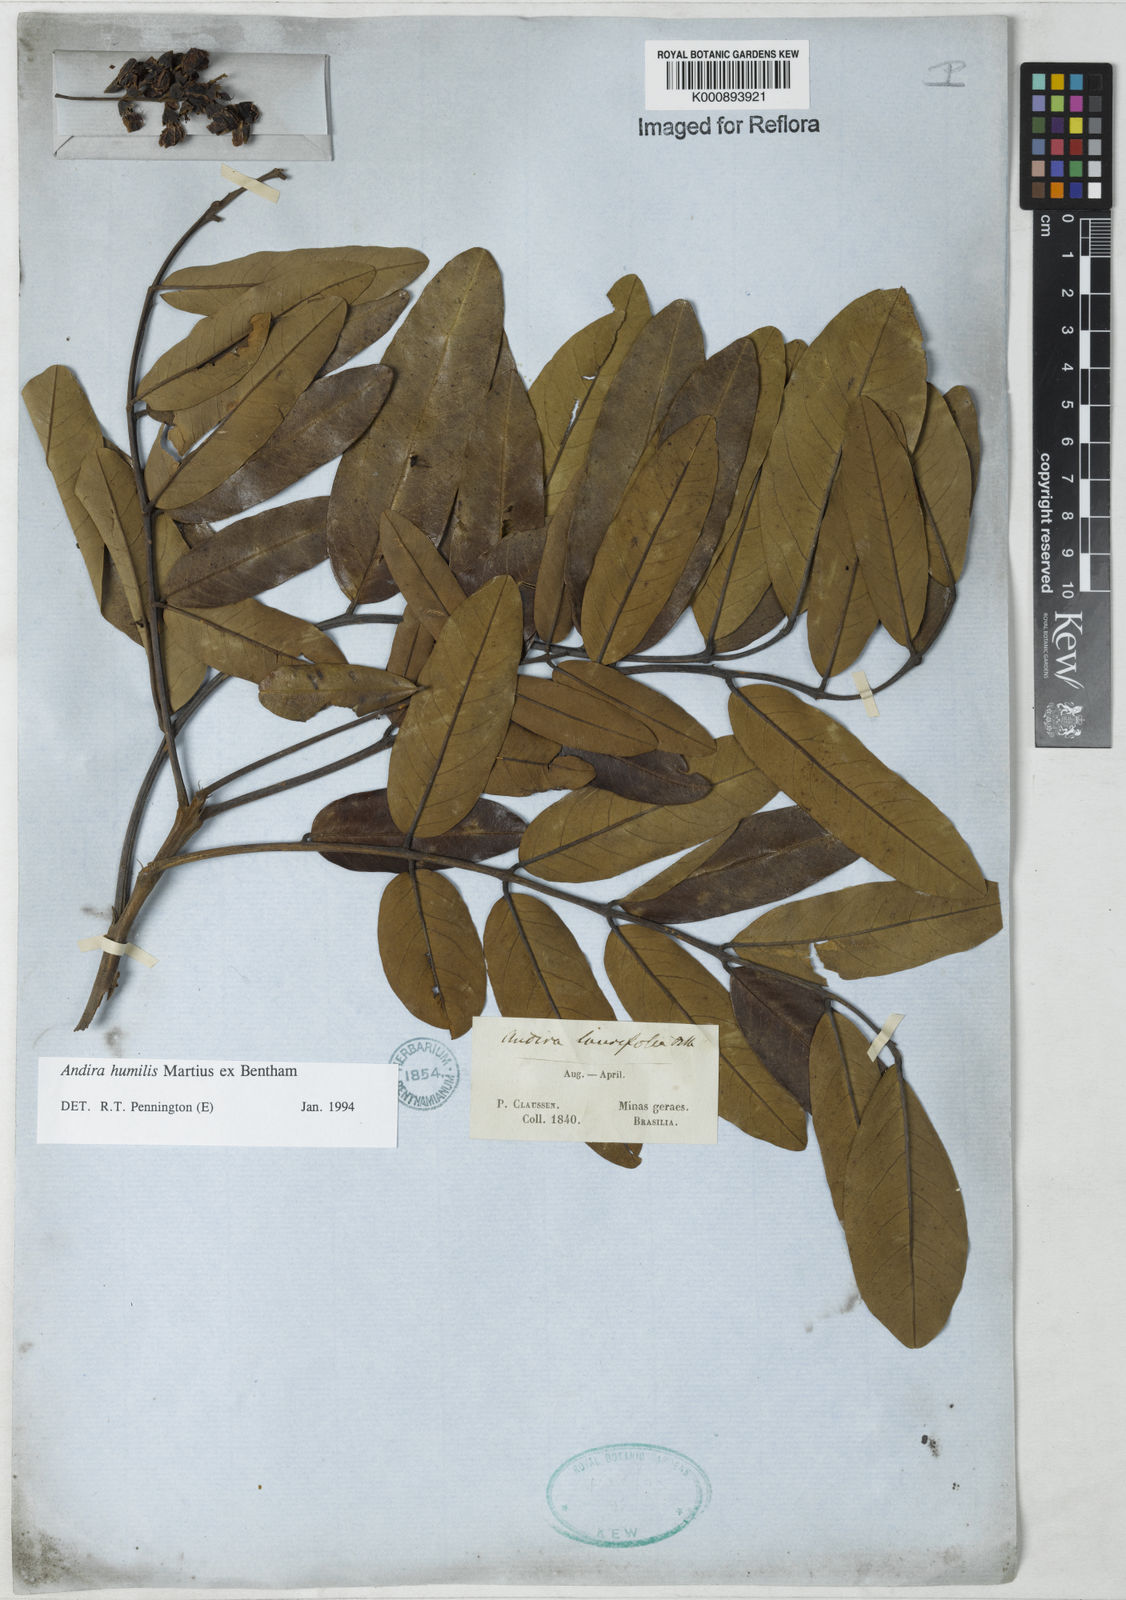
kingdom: Plantae
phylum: Tracheophyta
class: Magnoliopsida
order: Fabales
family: Fabaceae
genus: Andira
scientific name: Andira humilis
